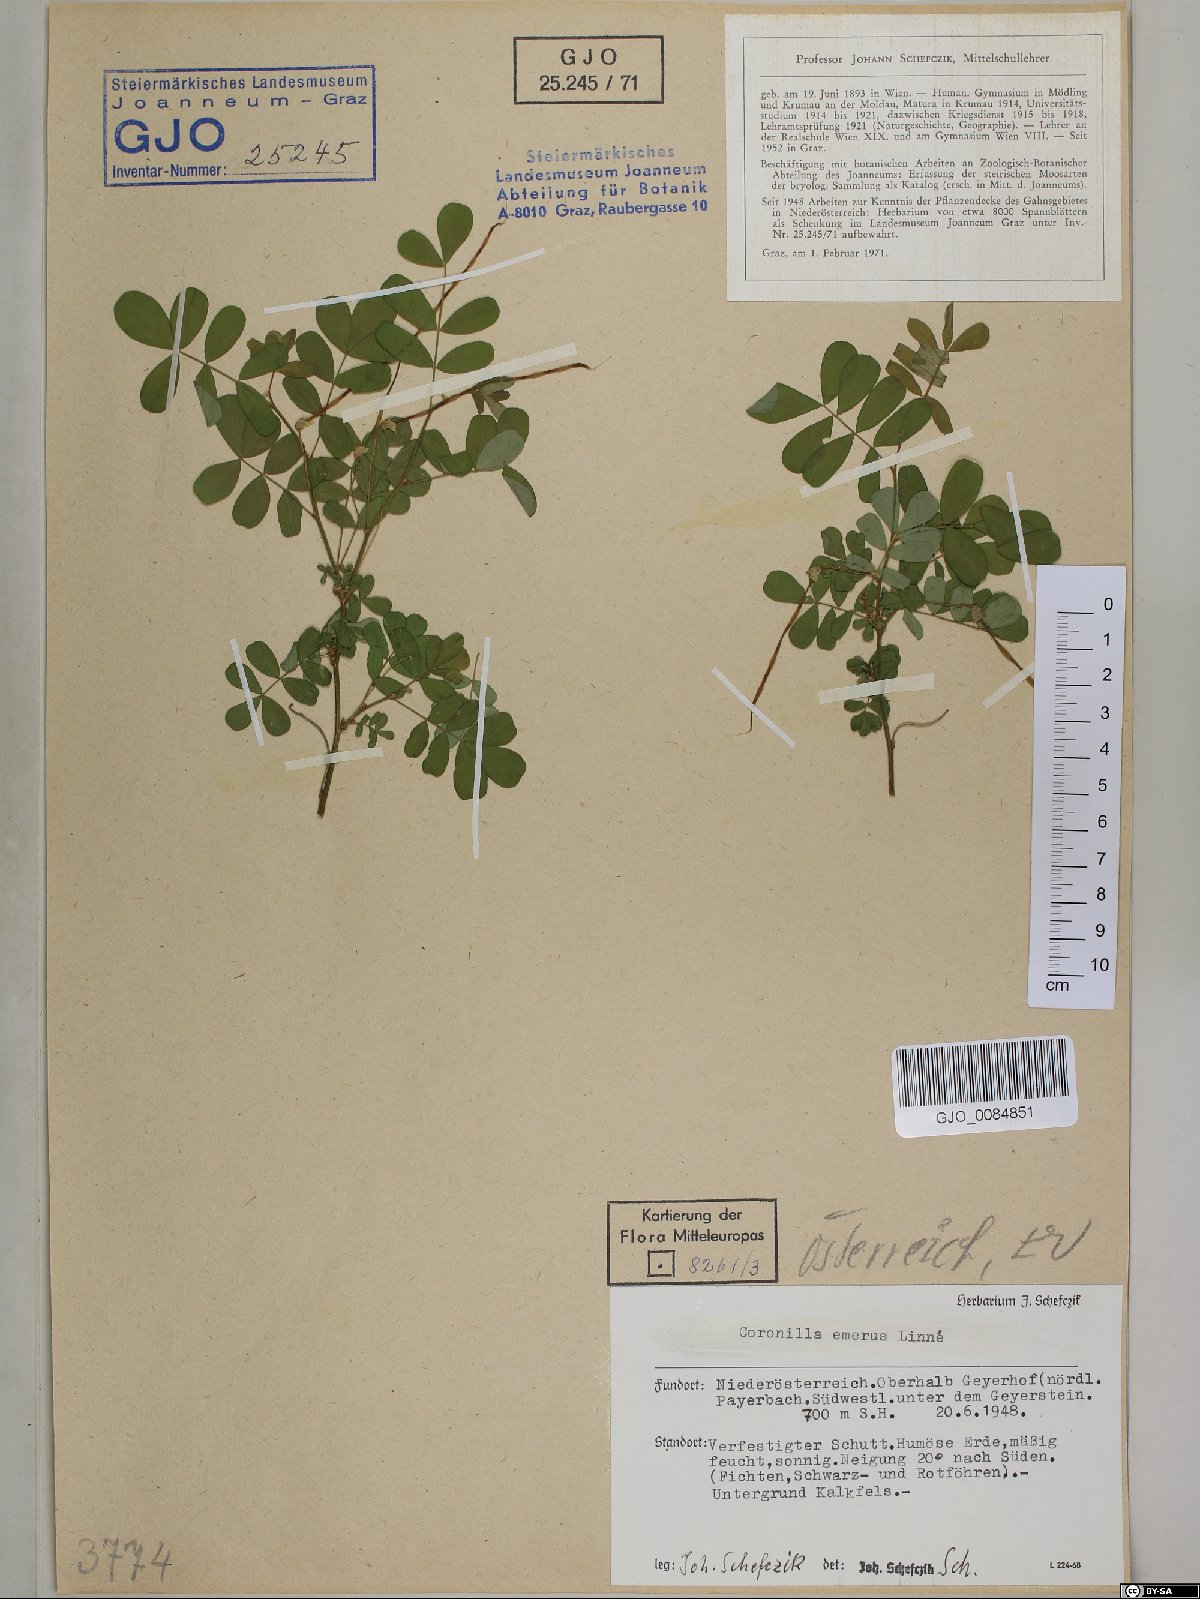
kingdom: Plantae
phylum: Tracheophyta
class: Magnoliopsida
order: Fabales
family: Fabaceae
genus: Hippocrepis
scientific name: Hippocrepis emerus
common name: Scorpion senna
